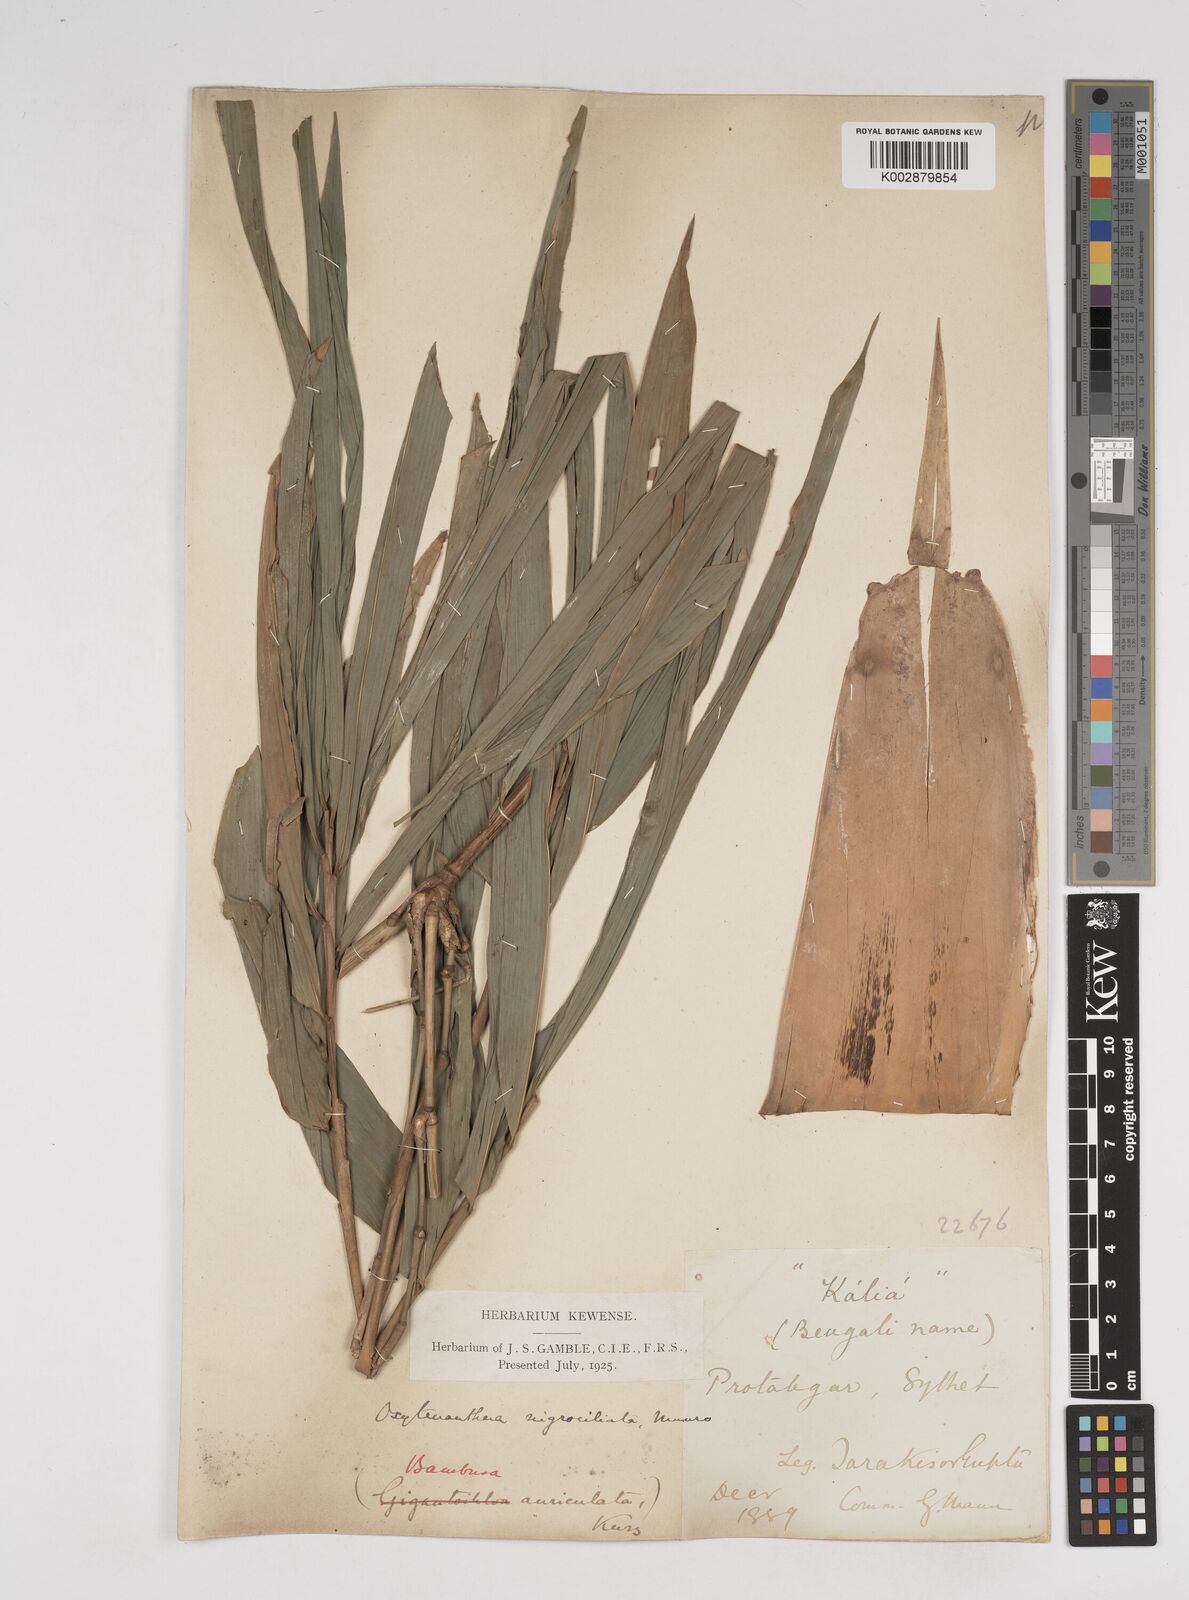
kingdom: Plantae
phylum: Tracheophyta
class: Liliopsida
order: Poales
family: Poaceae
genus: Gigantochloa
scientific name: Gigantochloa
